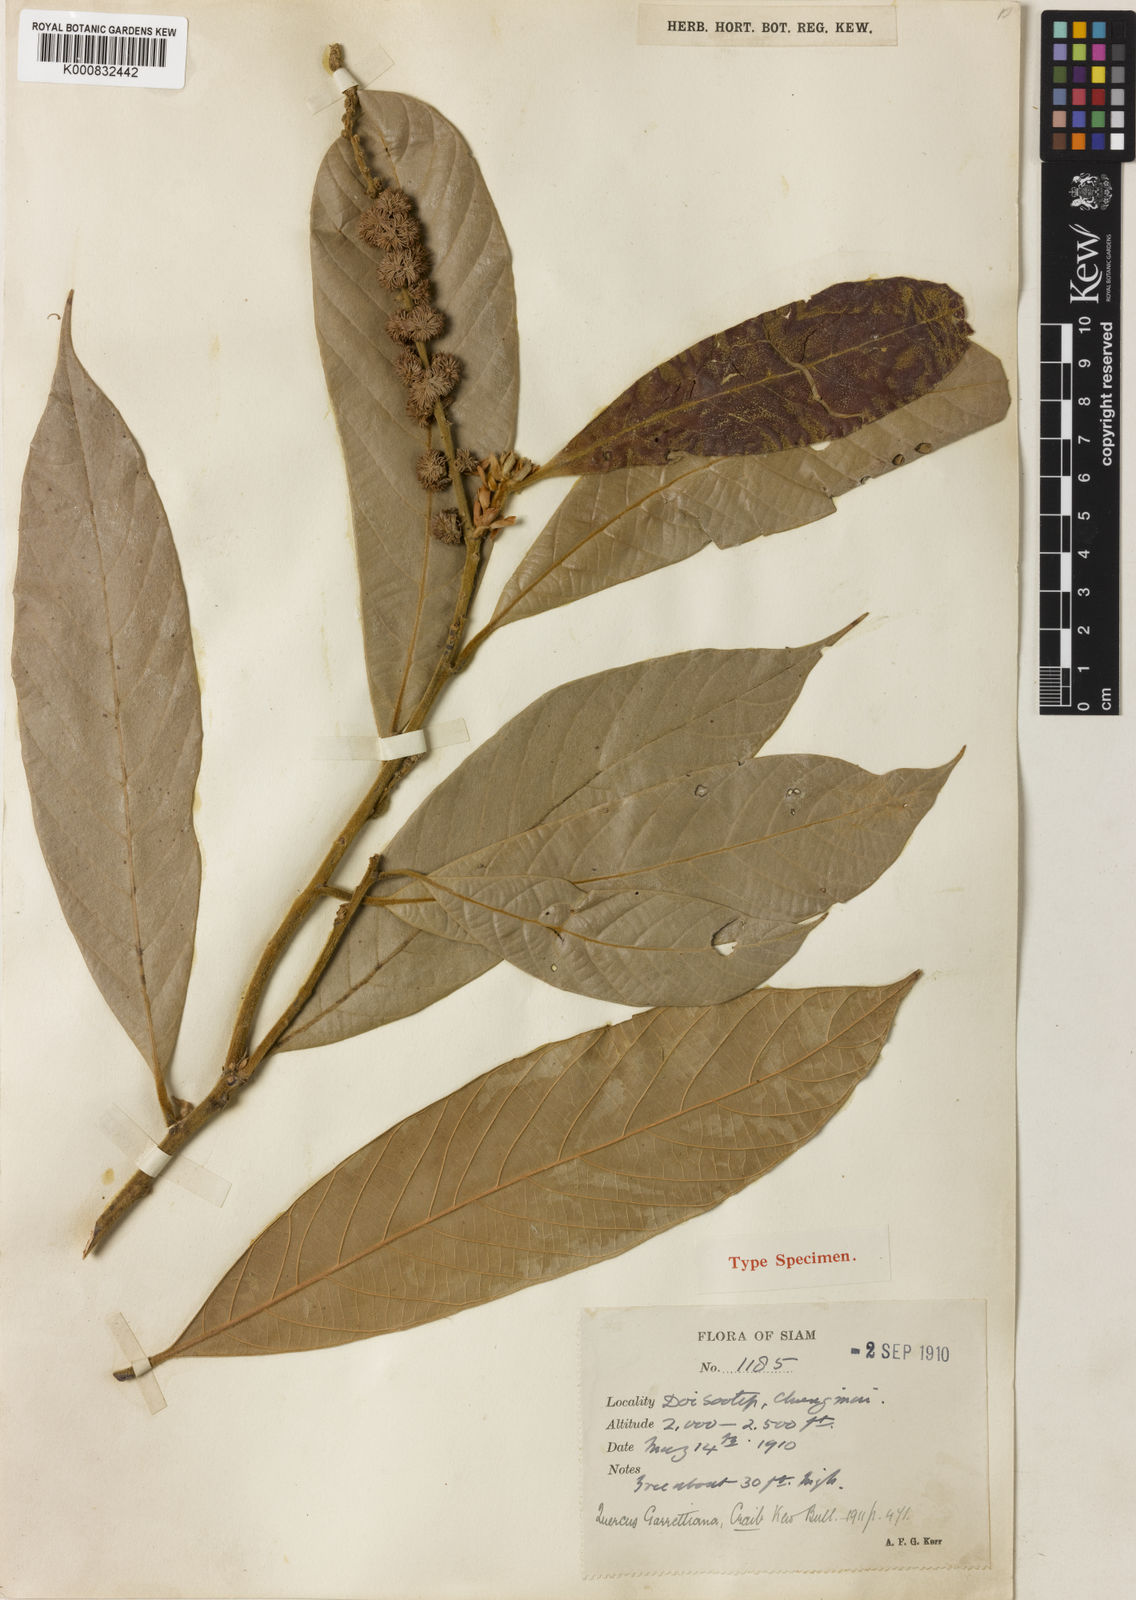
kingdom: Plantae
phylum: Tracheophyta
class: Magnoliopsida
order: Fagales
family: Fagaceae
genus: Lithocarpus
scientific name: Lithocarpus garrettianus
